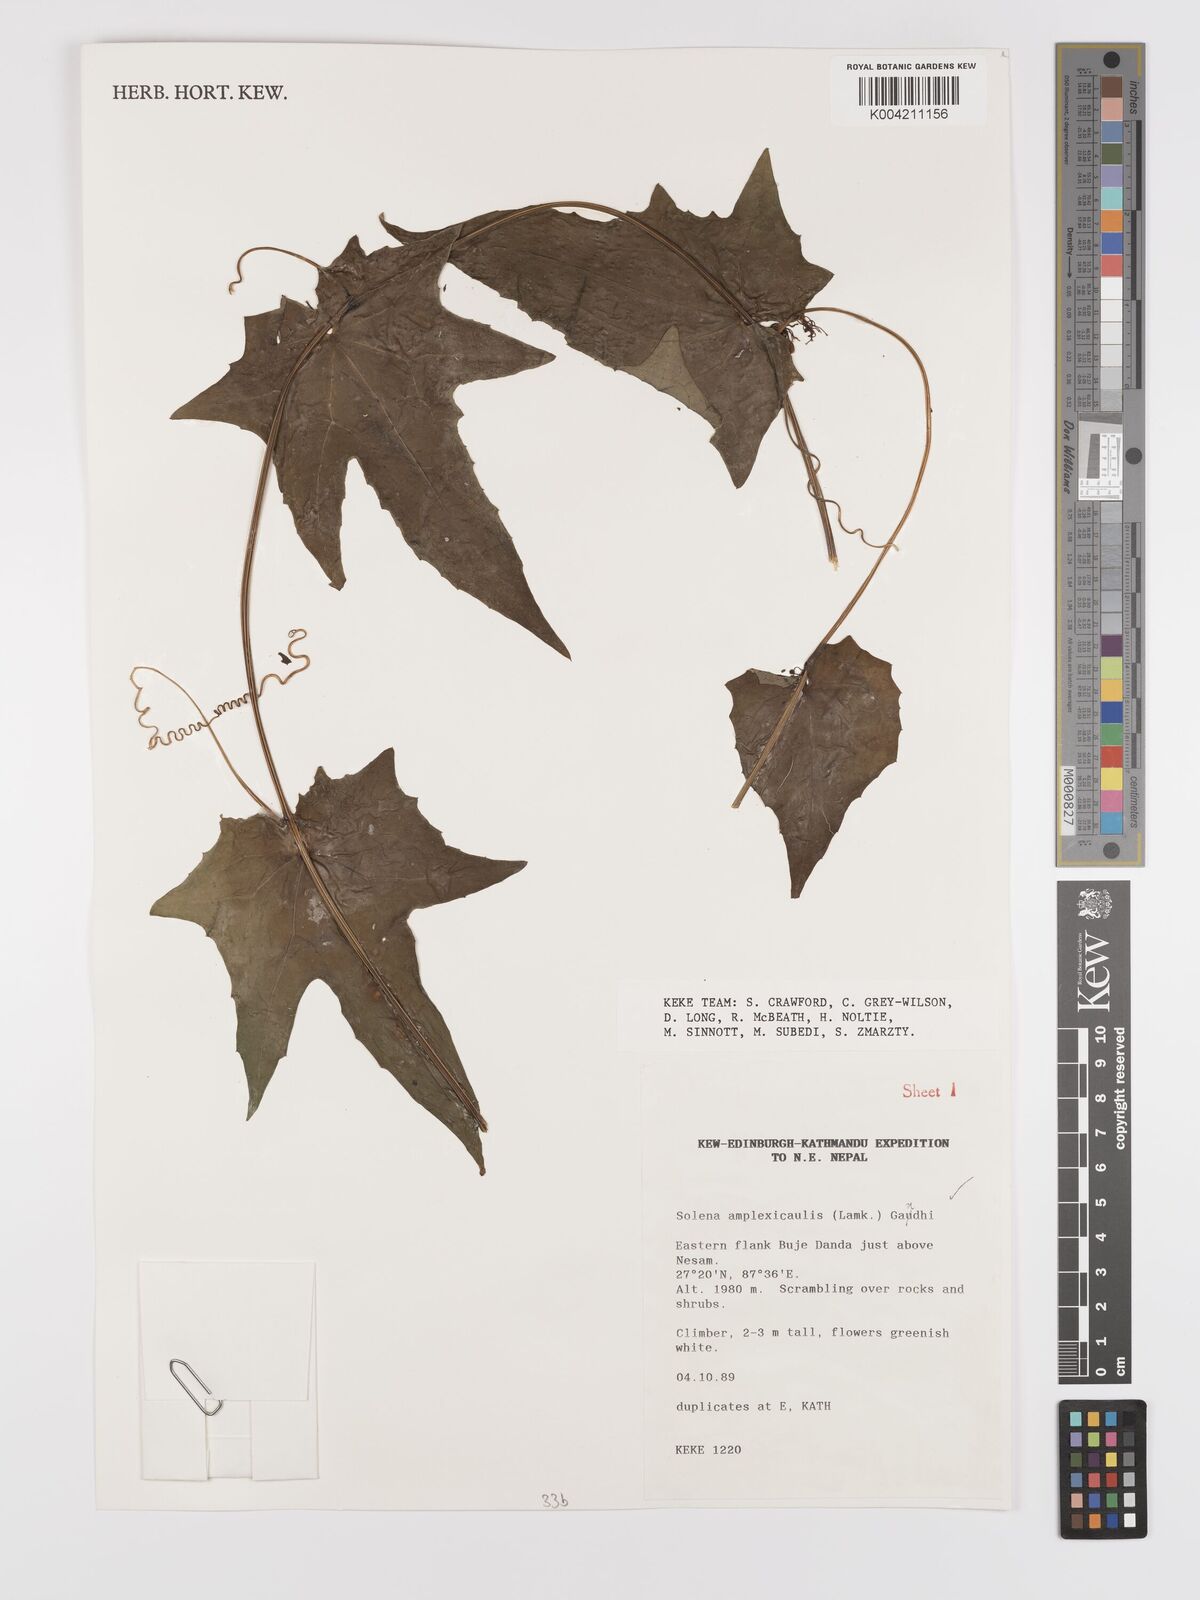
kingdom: Plantae
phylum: Tracheophyta
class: Magnoliopsida
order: Cucurbitales
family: Cucurbitaceae
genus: Solena
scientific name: Solena
